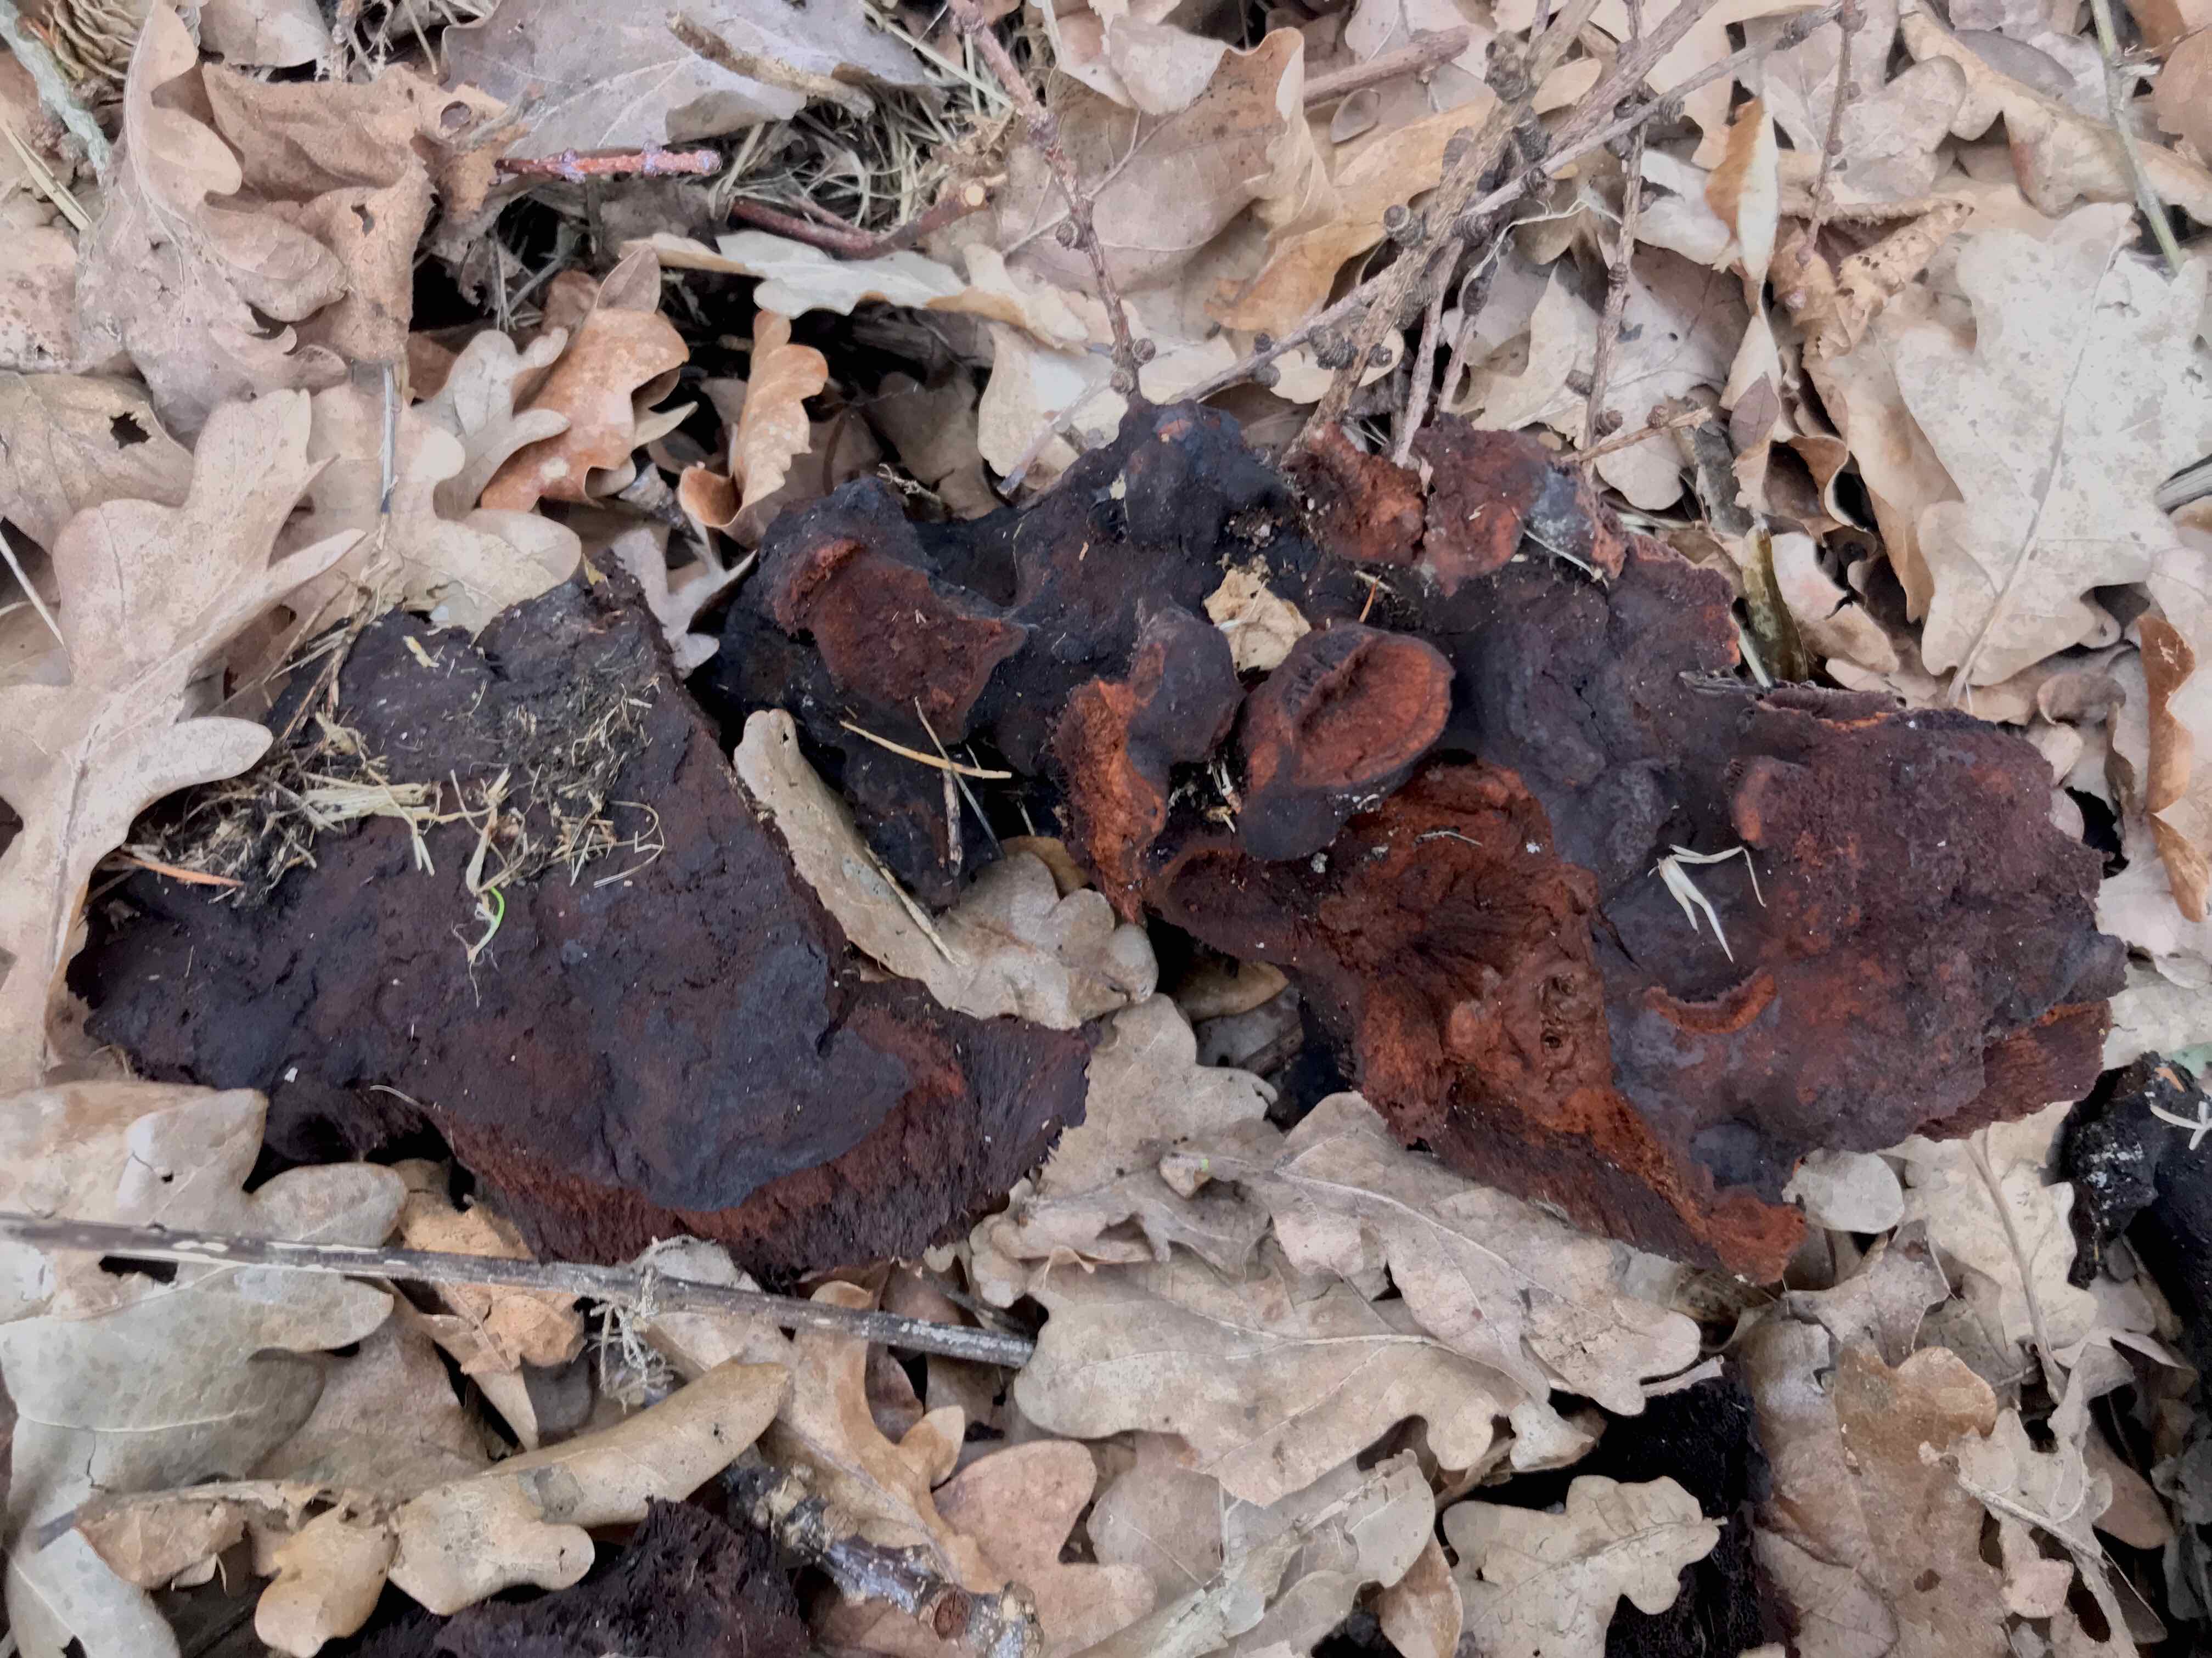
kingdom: Fungi
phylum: Basidiomycota
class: Agaricomycetes
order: Polyporales
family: Laetiporaceae
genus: Phaeolus
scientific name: Phaeolus schweinitzii
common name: brunporesvamp
